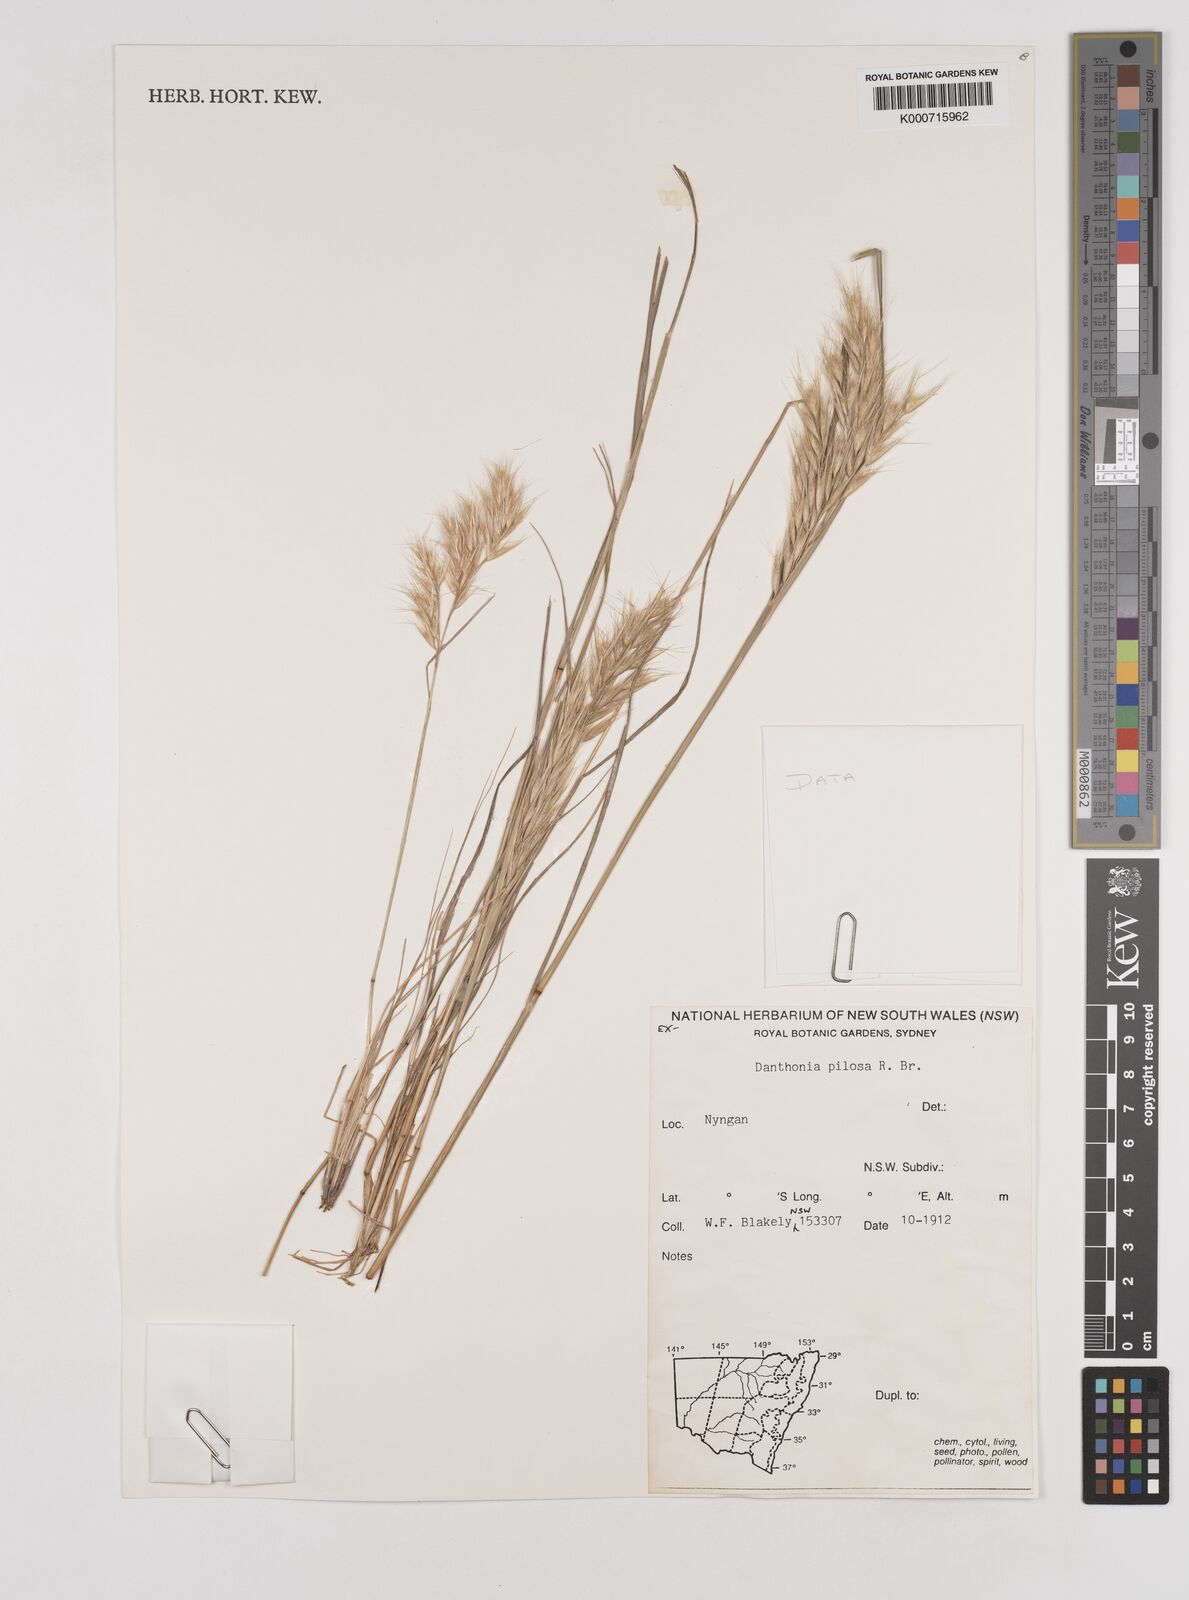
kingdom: Plantae
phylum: Tracheophyta
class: Liliopsida
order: Poales
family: Poaceae
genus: Rytidosperma
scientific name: Rytidosperma pilosum
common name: Hairy wallaby grass
